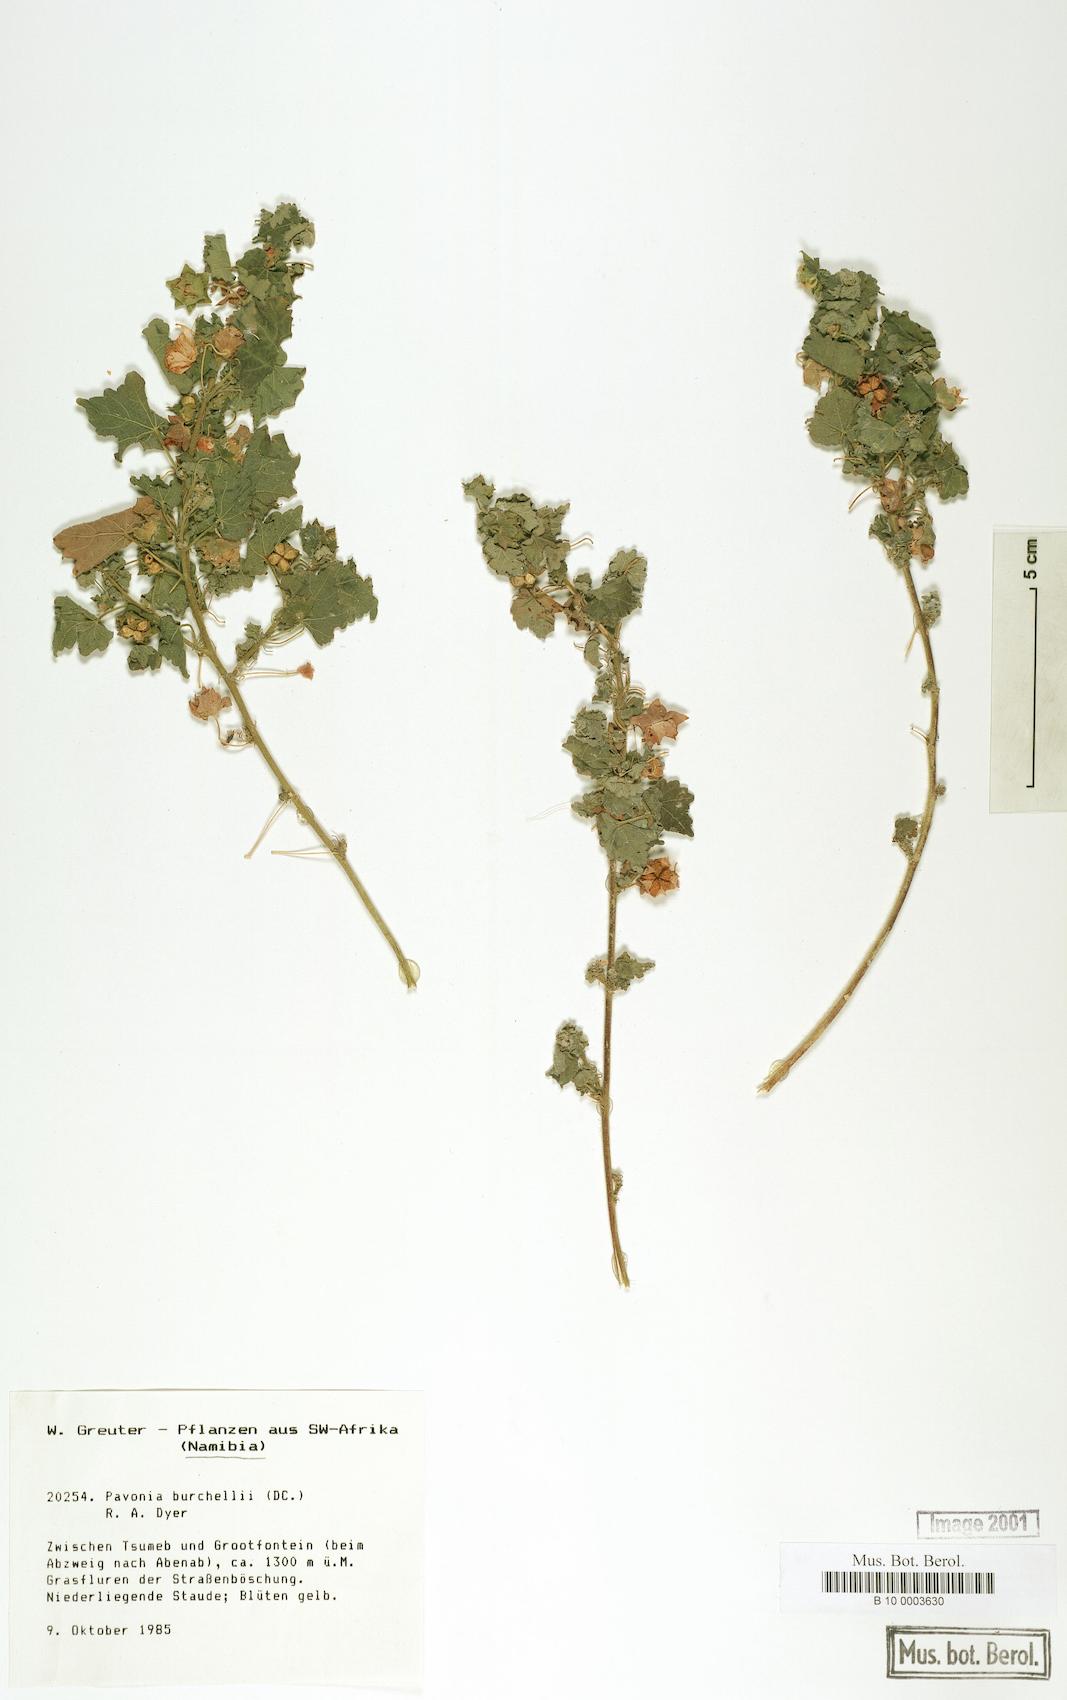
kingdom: Plantae
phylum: Tracheophyta
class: Magnoliopsida
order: Malvales
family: Malvaceae
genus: Pavonia
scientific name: Pavonia burchellii
